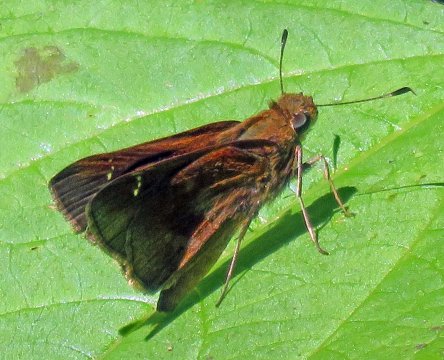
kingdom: Animalia
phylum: Arthropoda
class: Insecta
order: Lepidoptera
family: Hesperiidae
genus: Lerema
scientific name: Lerema accius
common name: Clouded Skipper
